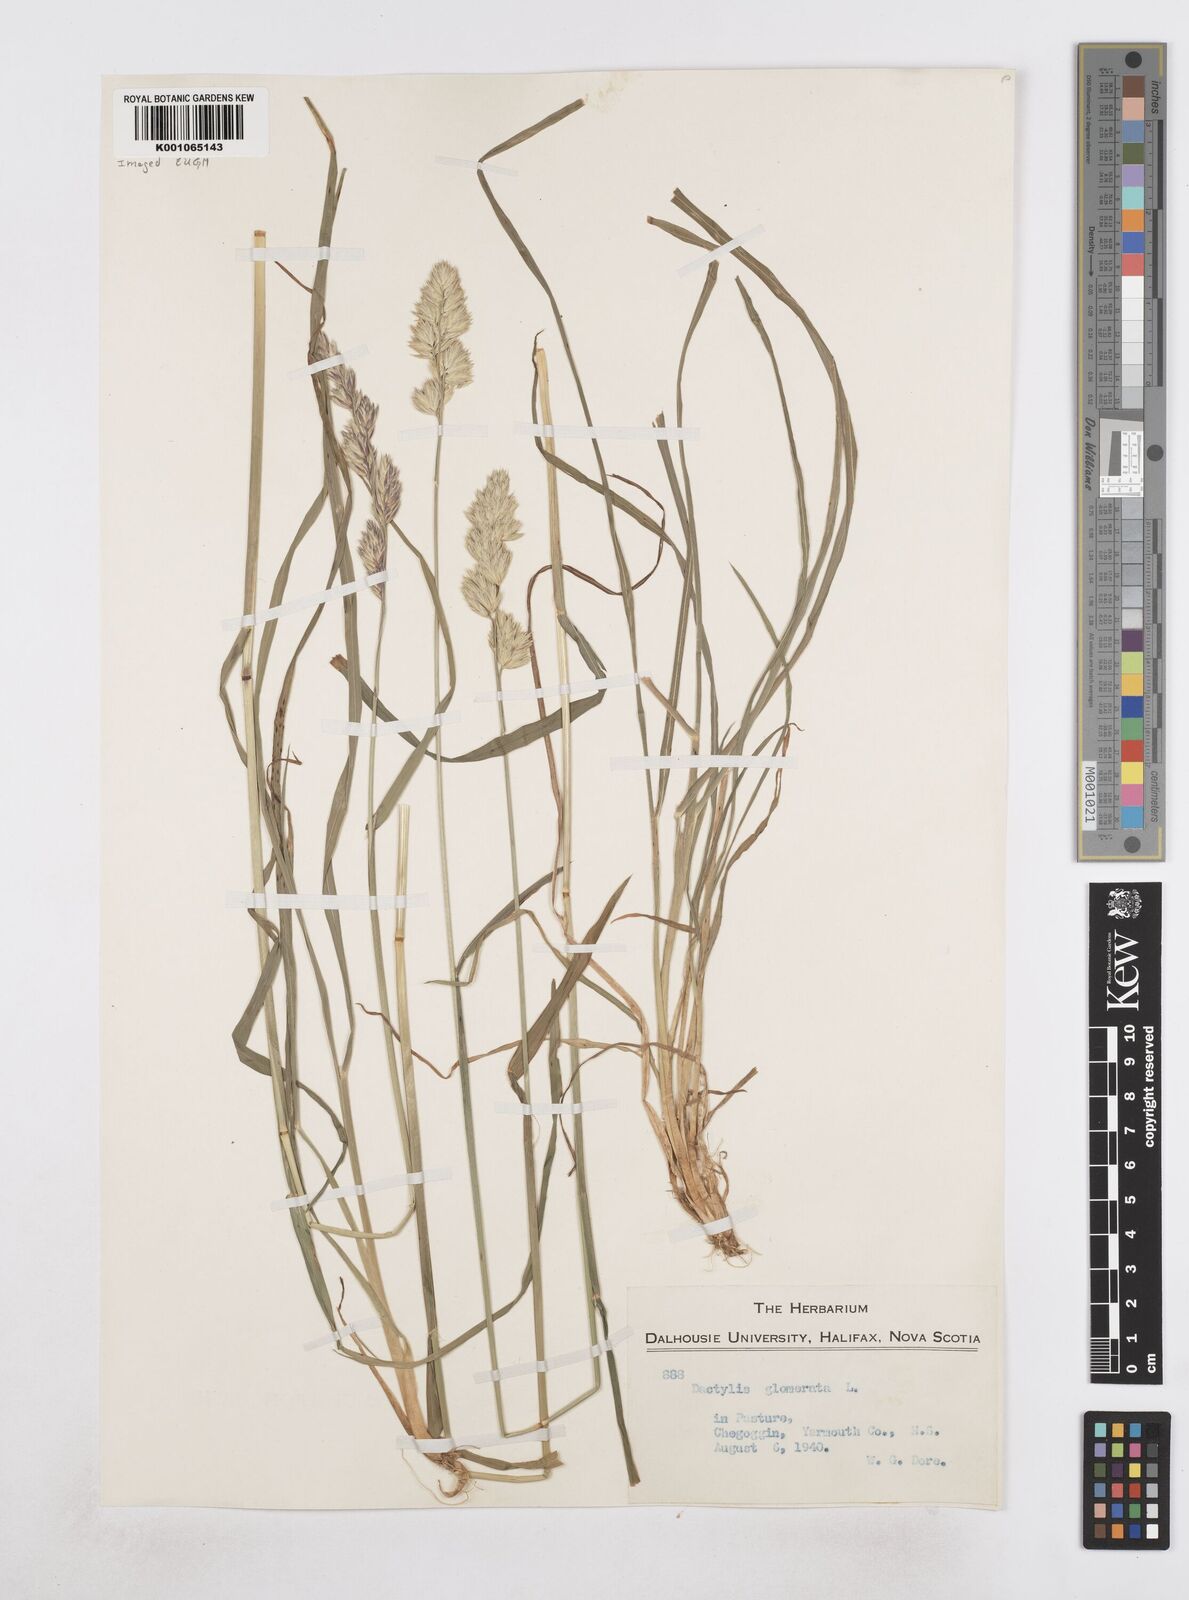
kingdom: Plantae
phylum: Tracheophyta
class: Liliopsida
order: Poales
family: Poaceae
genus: Dactylis
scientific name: Dactylis glomerata
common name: Orchardgrass
